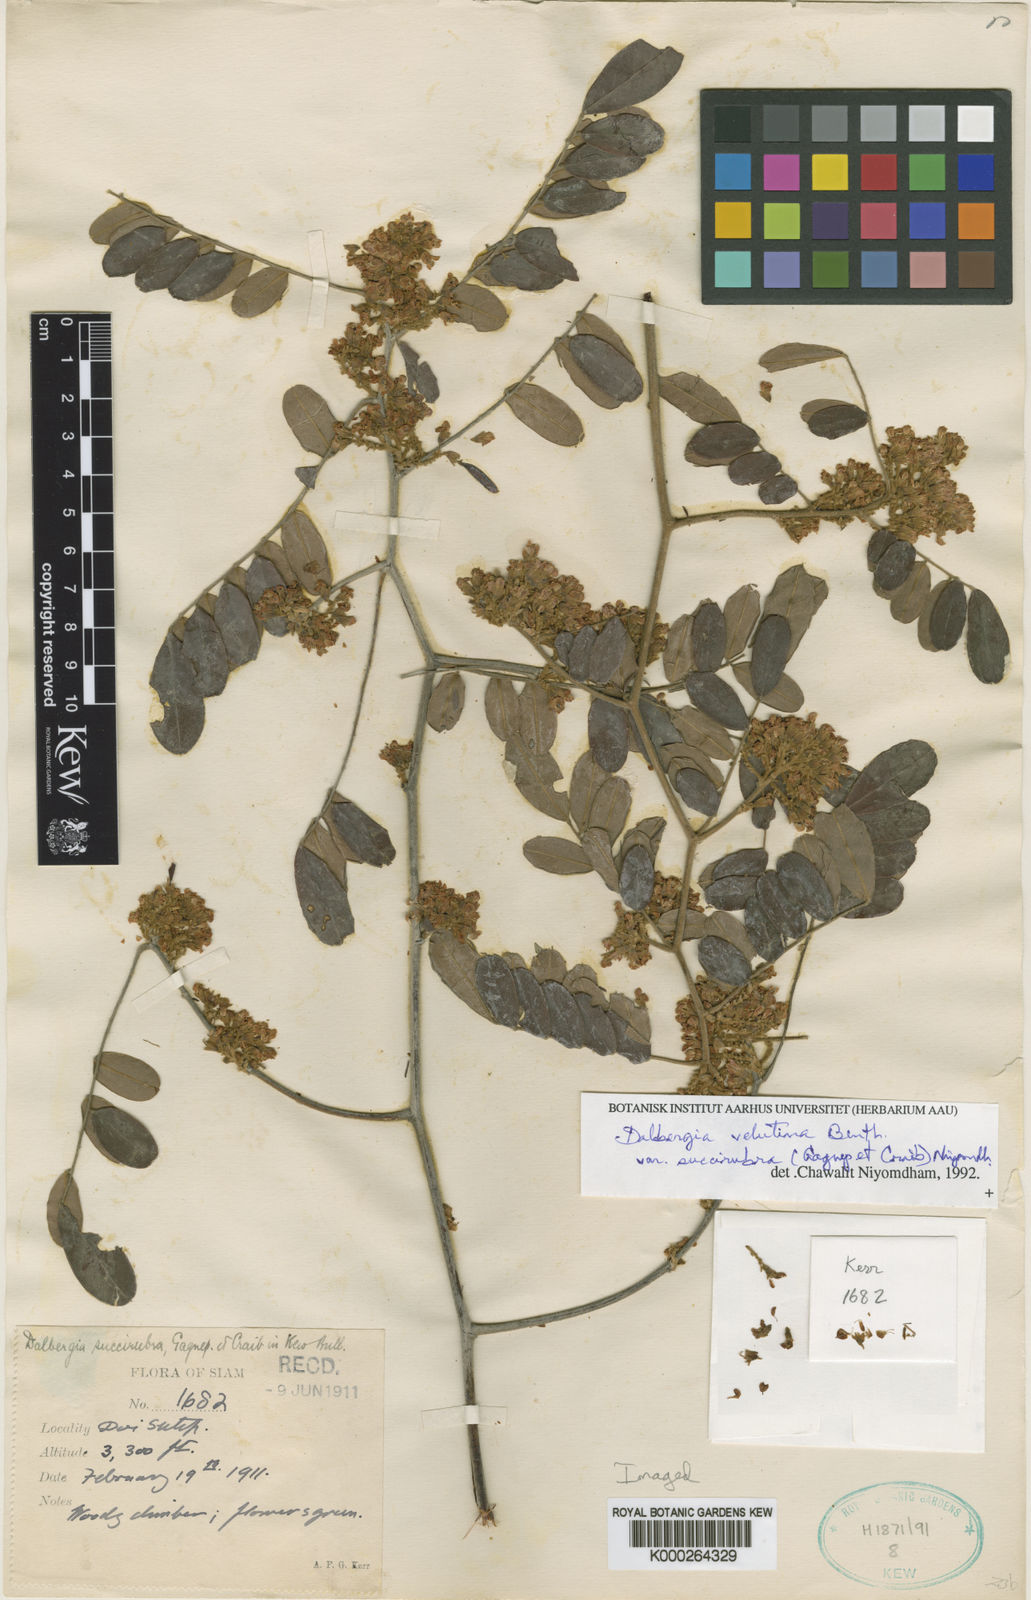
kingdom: Plantae
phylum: Tracheophyta
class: Magnoliopsida
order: Fabales
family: Fabaceae
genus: Dalbergia
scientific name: Dalbergia velutina
